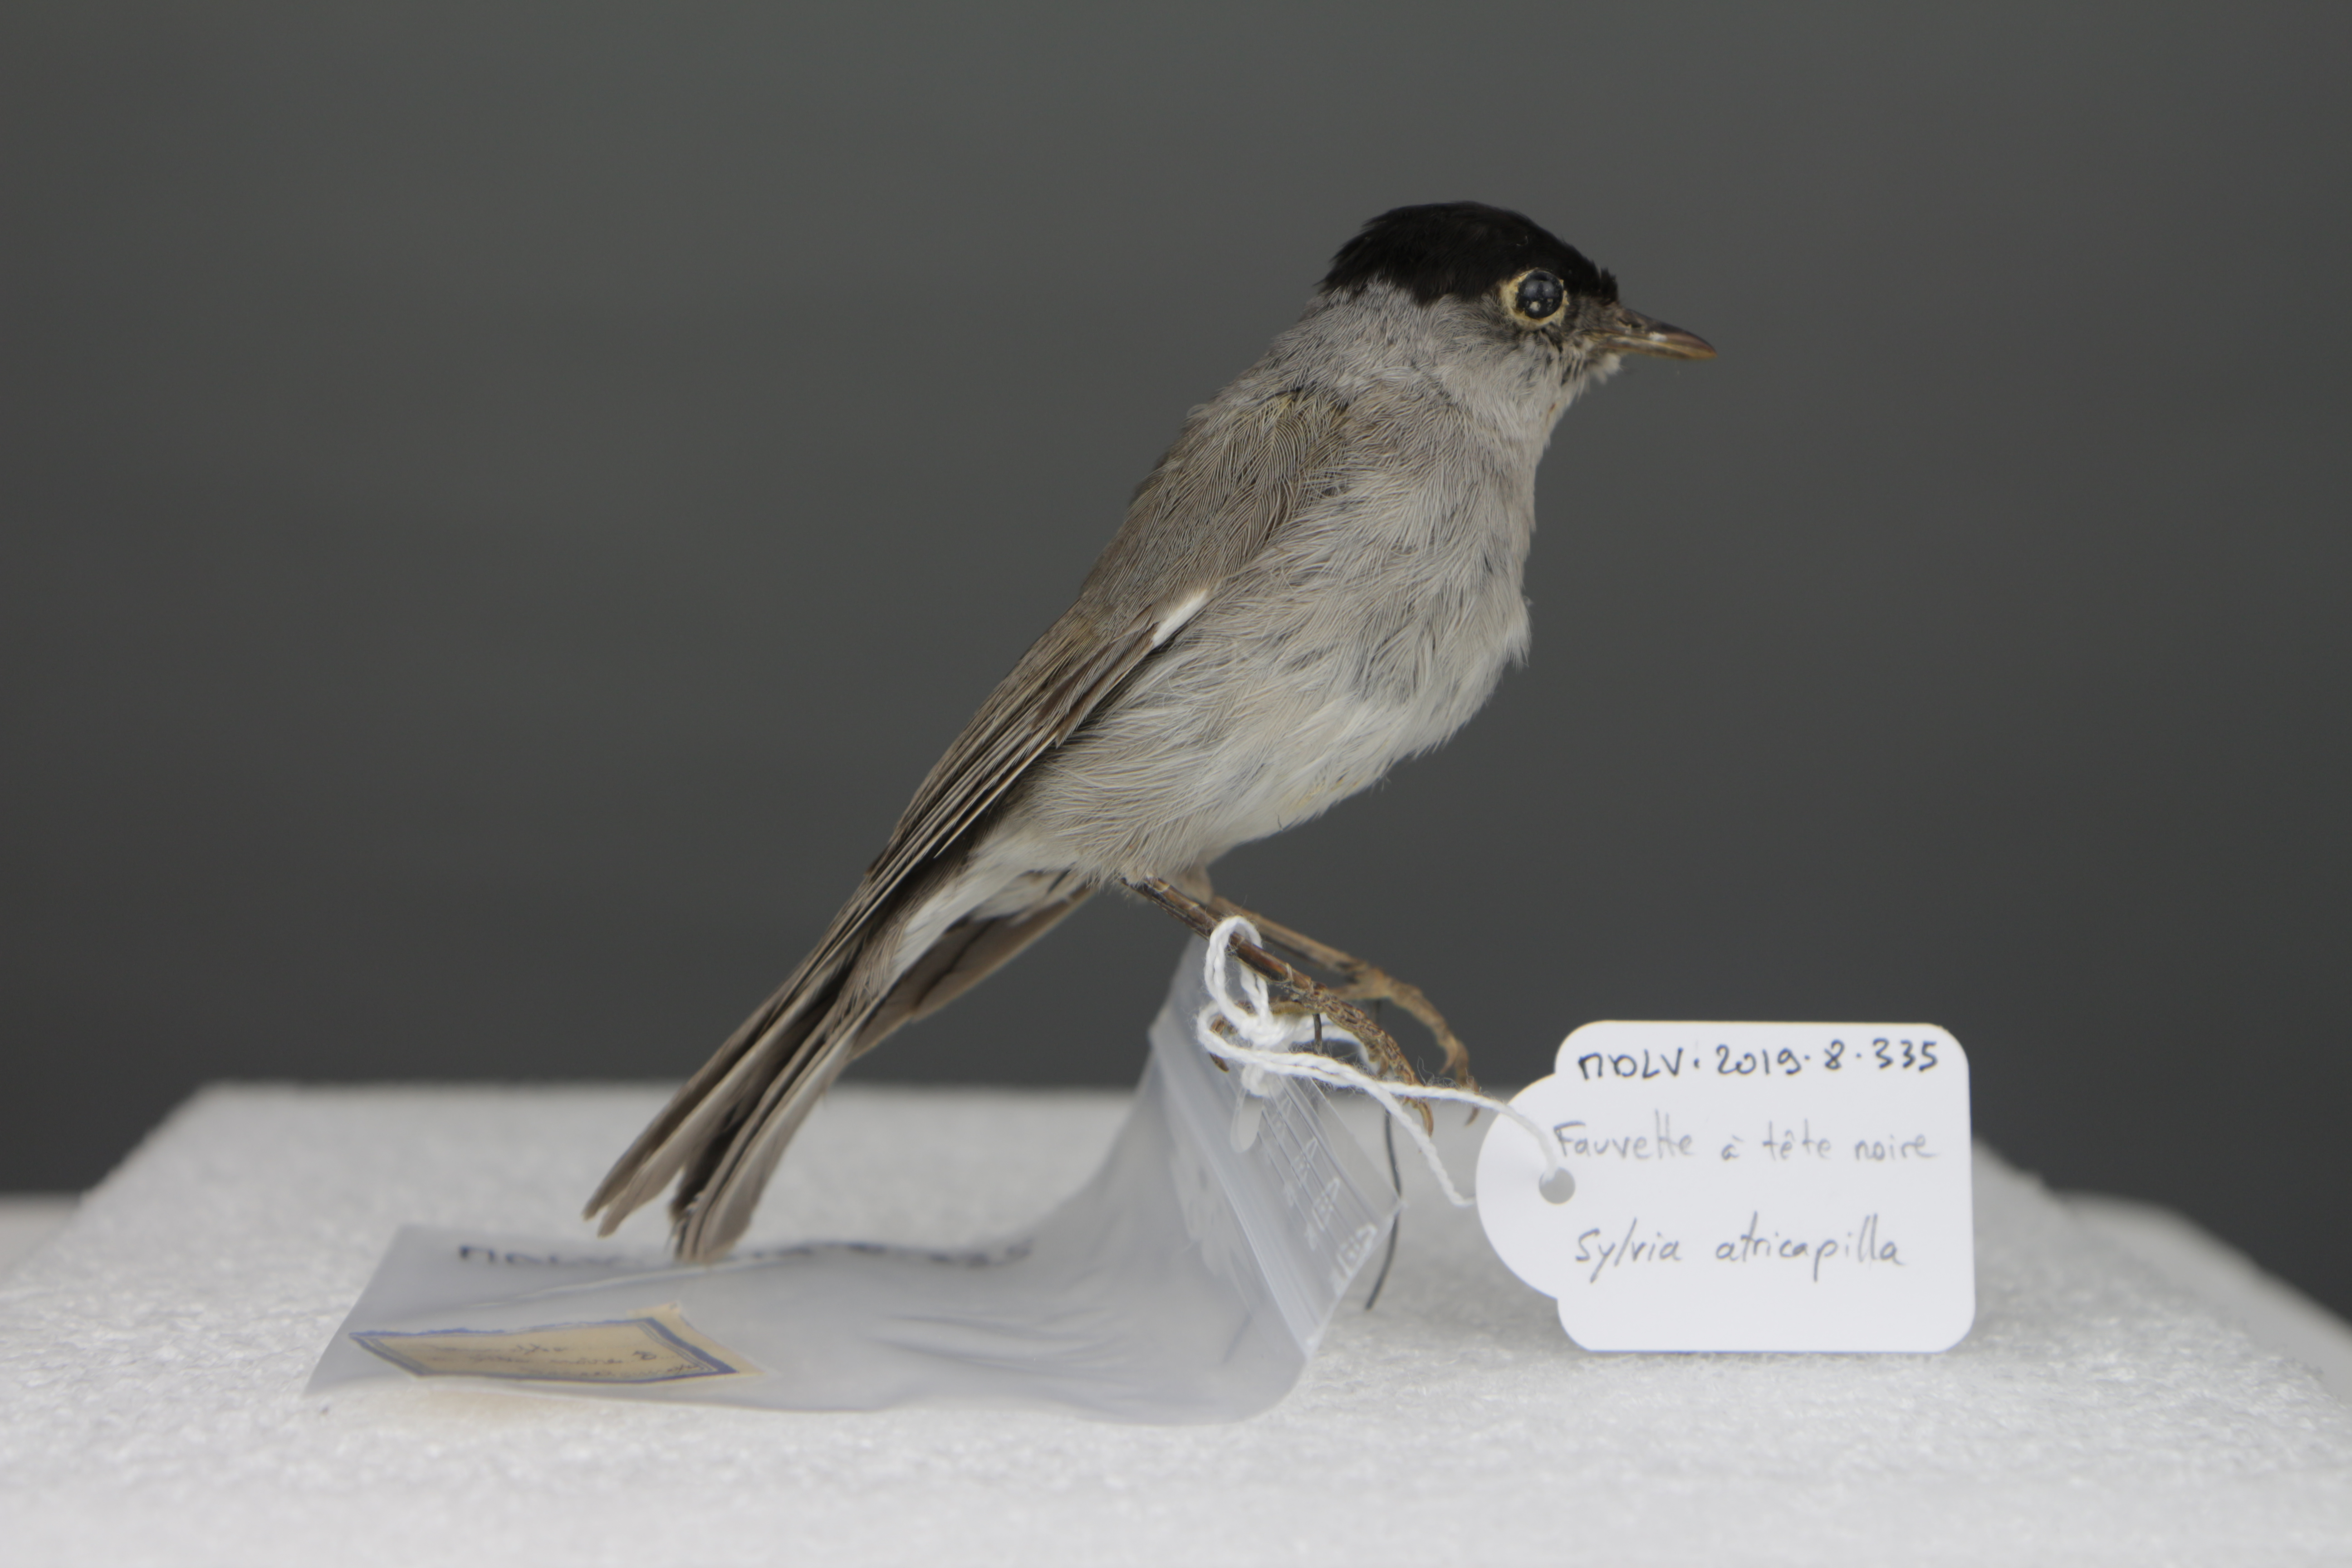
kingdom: Animalia
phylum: Chordata
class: Aves
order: Passeriformes
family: Sylviidae
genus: Sylvia
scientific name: Sylvia atricapilla
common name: Eurasian blackcap
